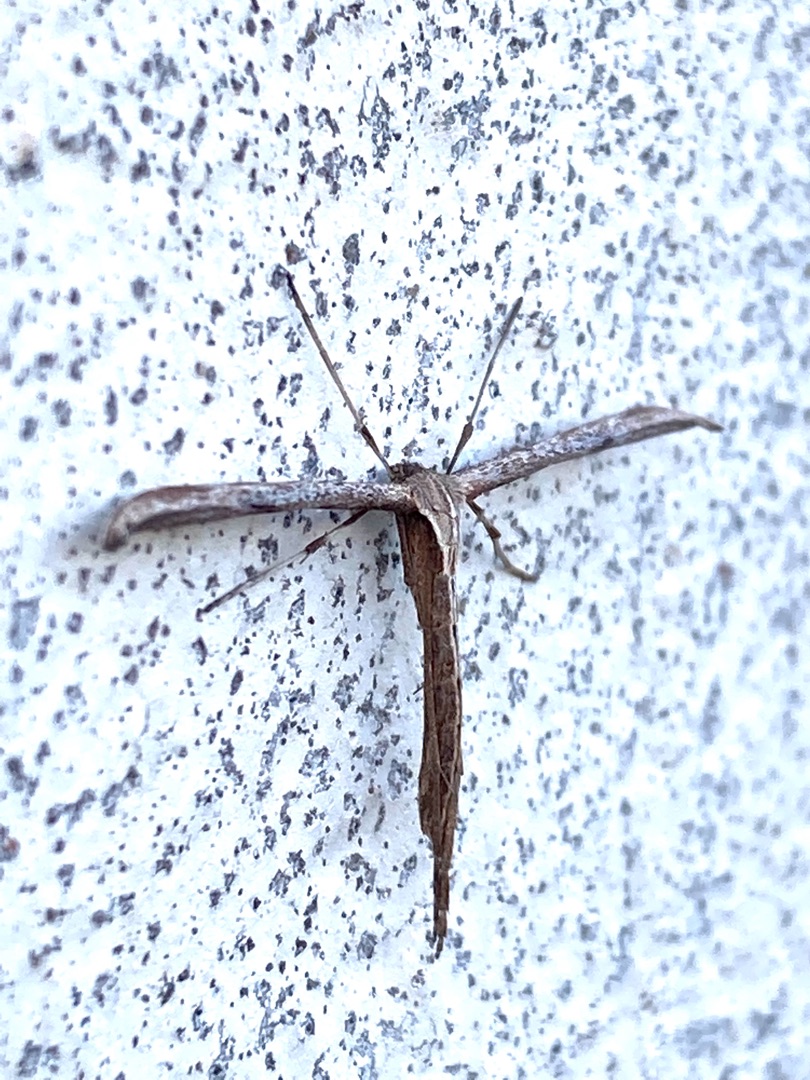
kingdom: Animalia
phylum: Arthropoda
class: Insecta
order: Lepidoptera
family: Pterophoridae
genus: Emmelina
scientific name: Emmelina monodactyla
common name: Snerlefjermøl
